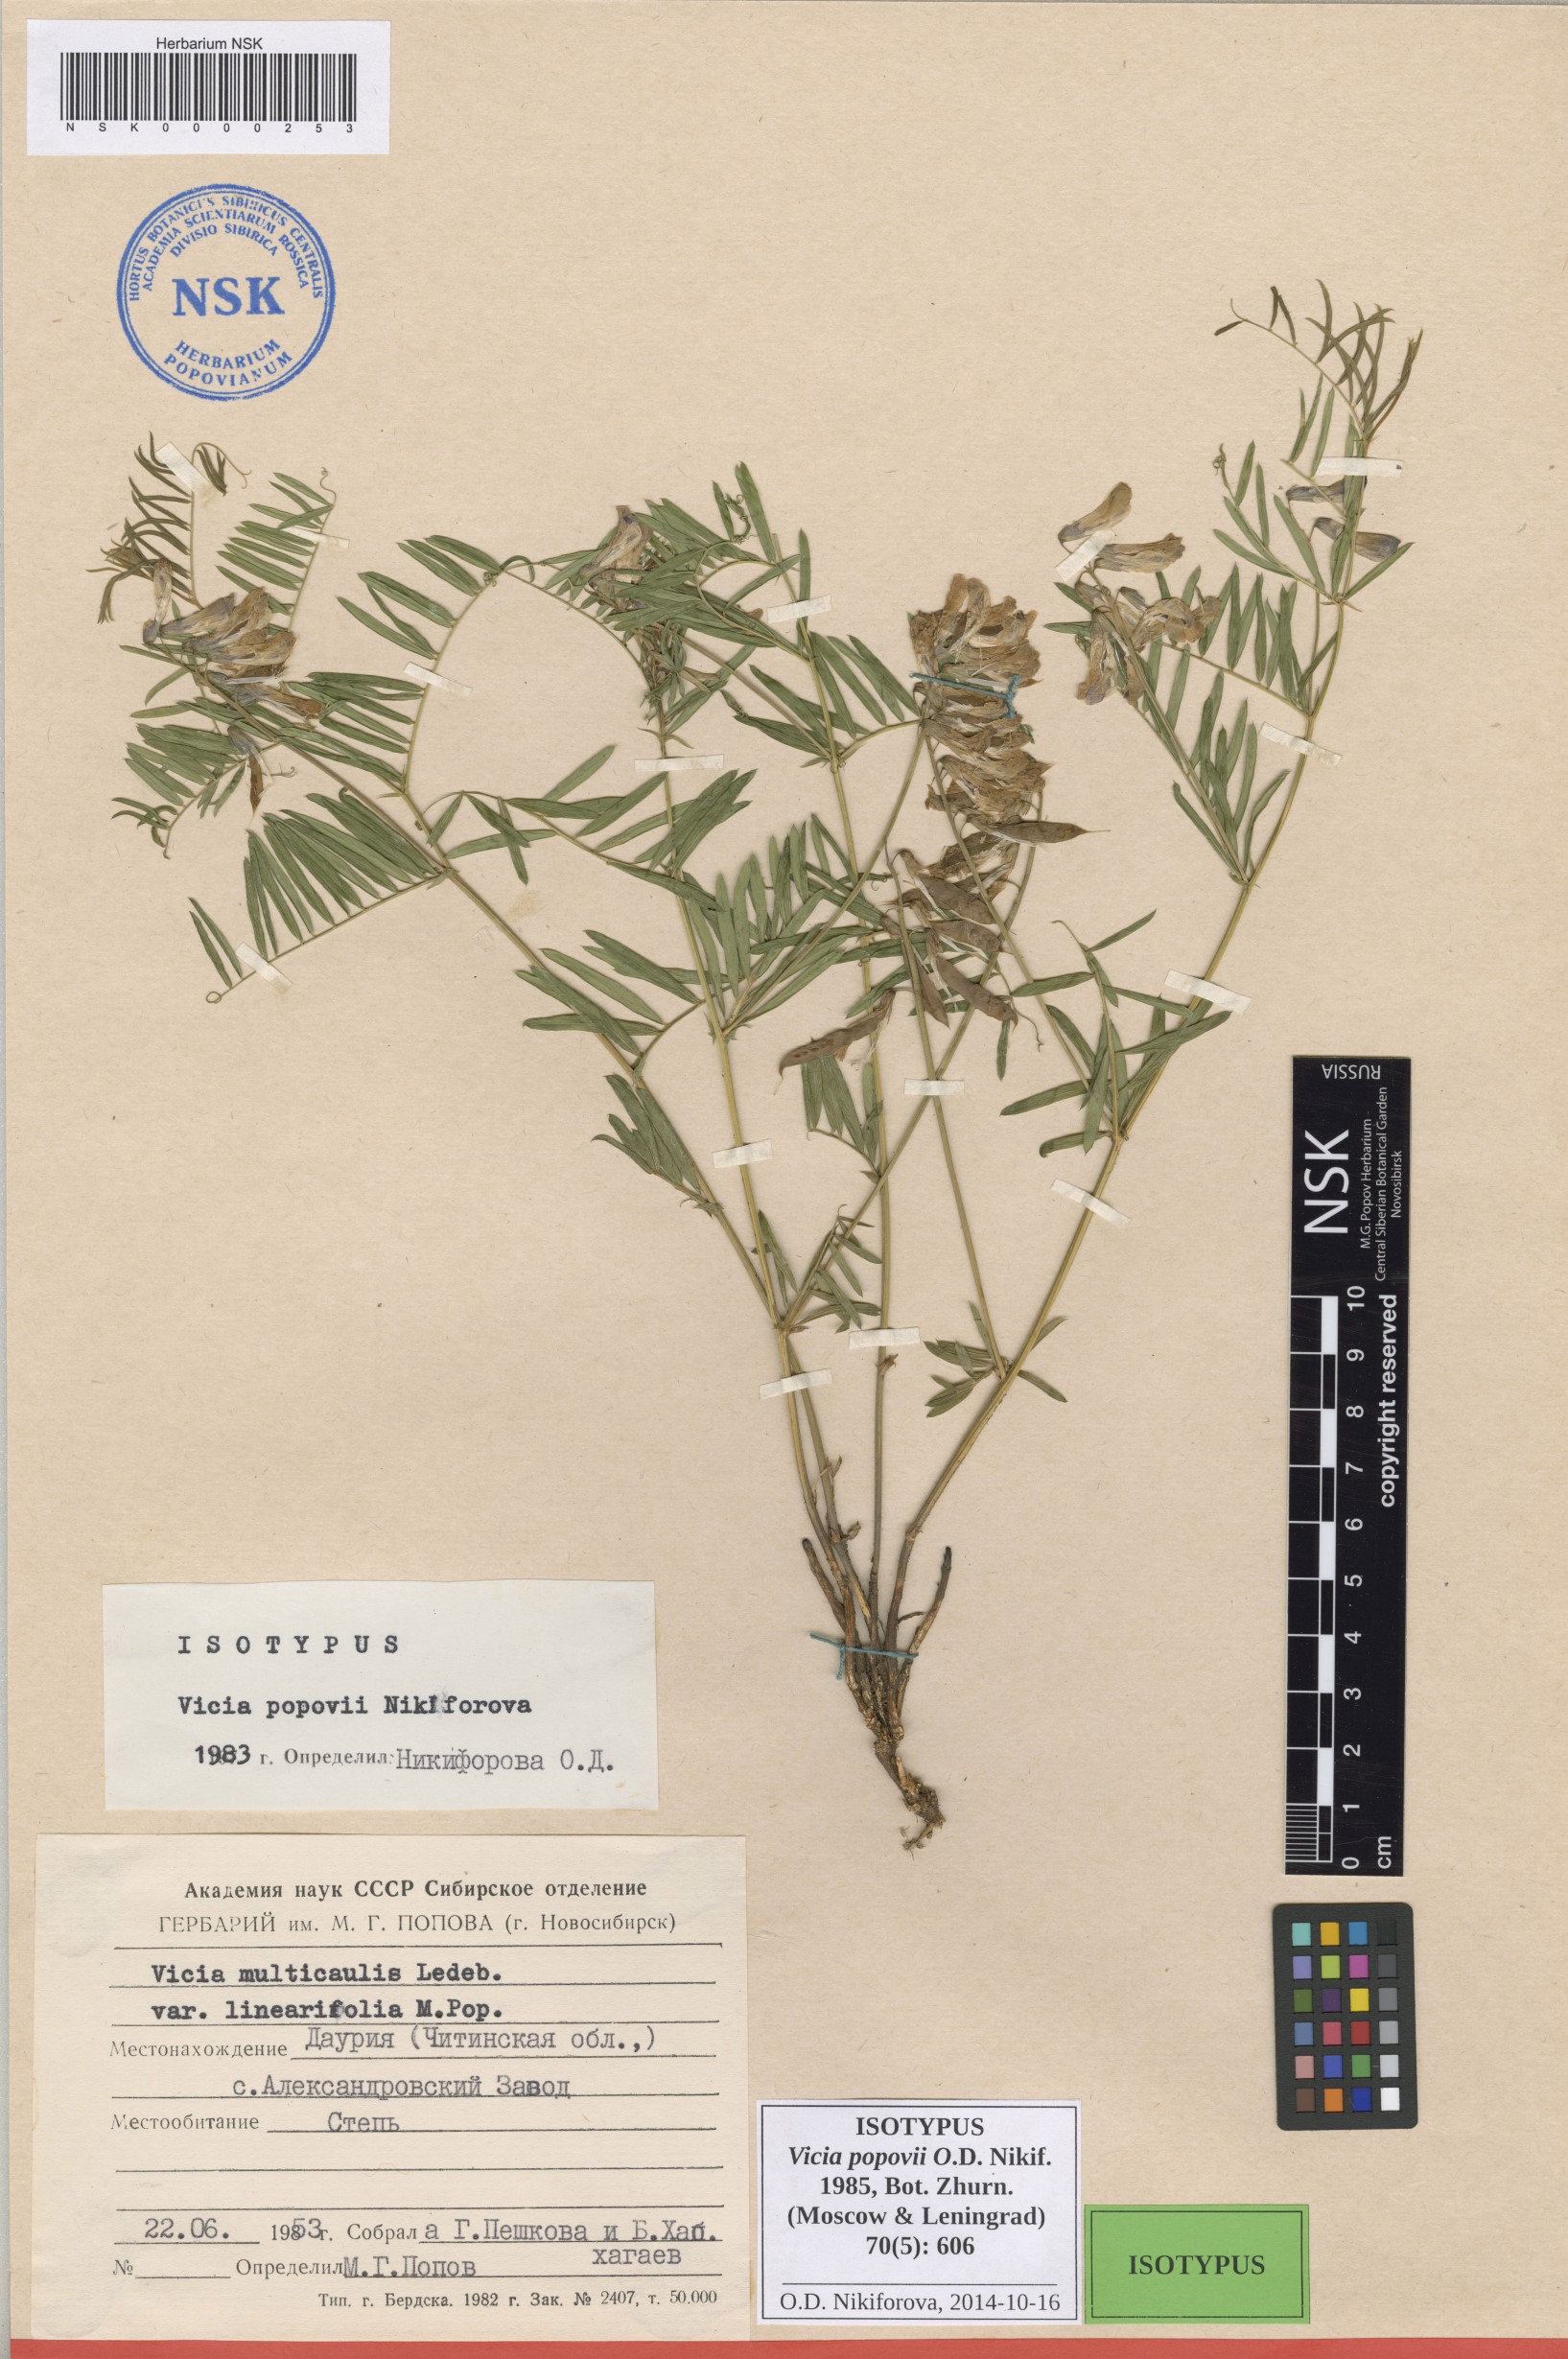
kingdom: Plantae
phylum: Tracheophyta
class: Magnoliopsida
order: Fabales
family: Fabaceae
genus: Vicia
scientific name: Vicia popovii
